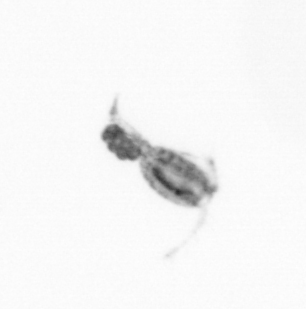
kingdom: Animalia
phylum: Arthropoda
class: Copepoda
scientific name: Copepoda
